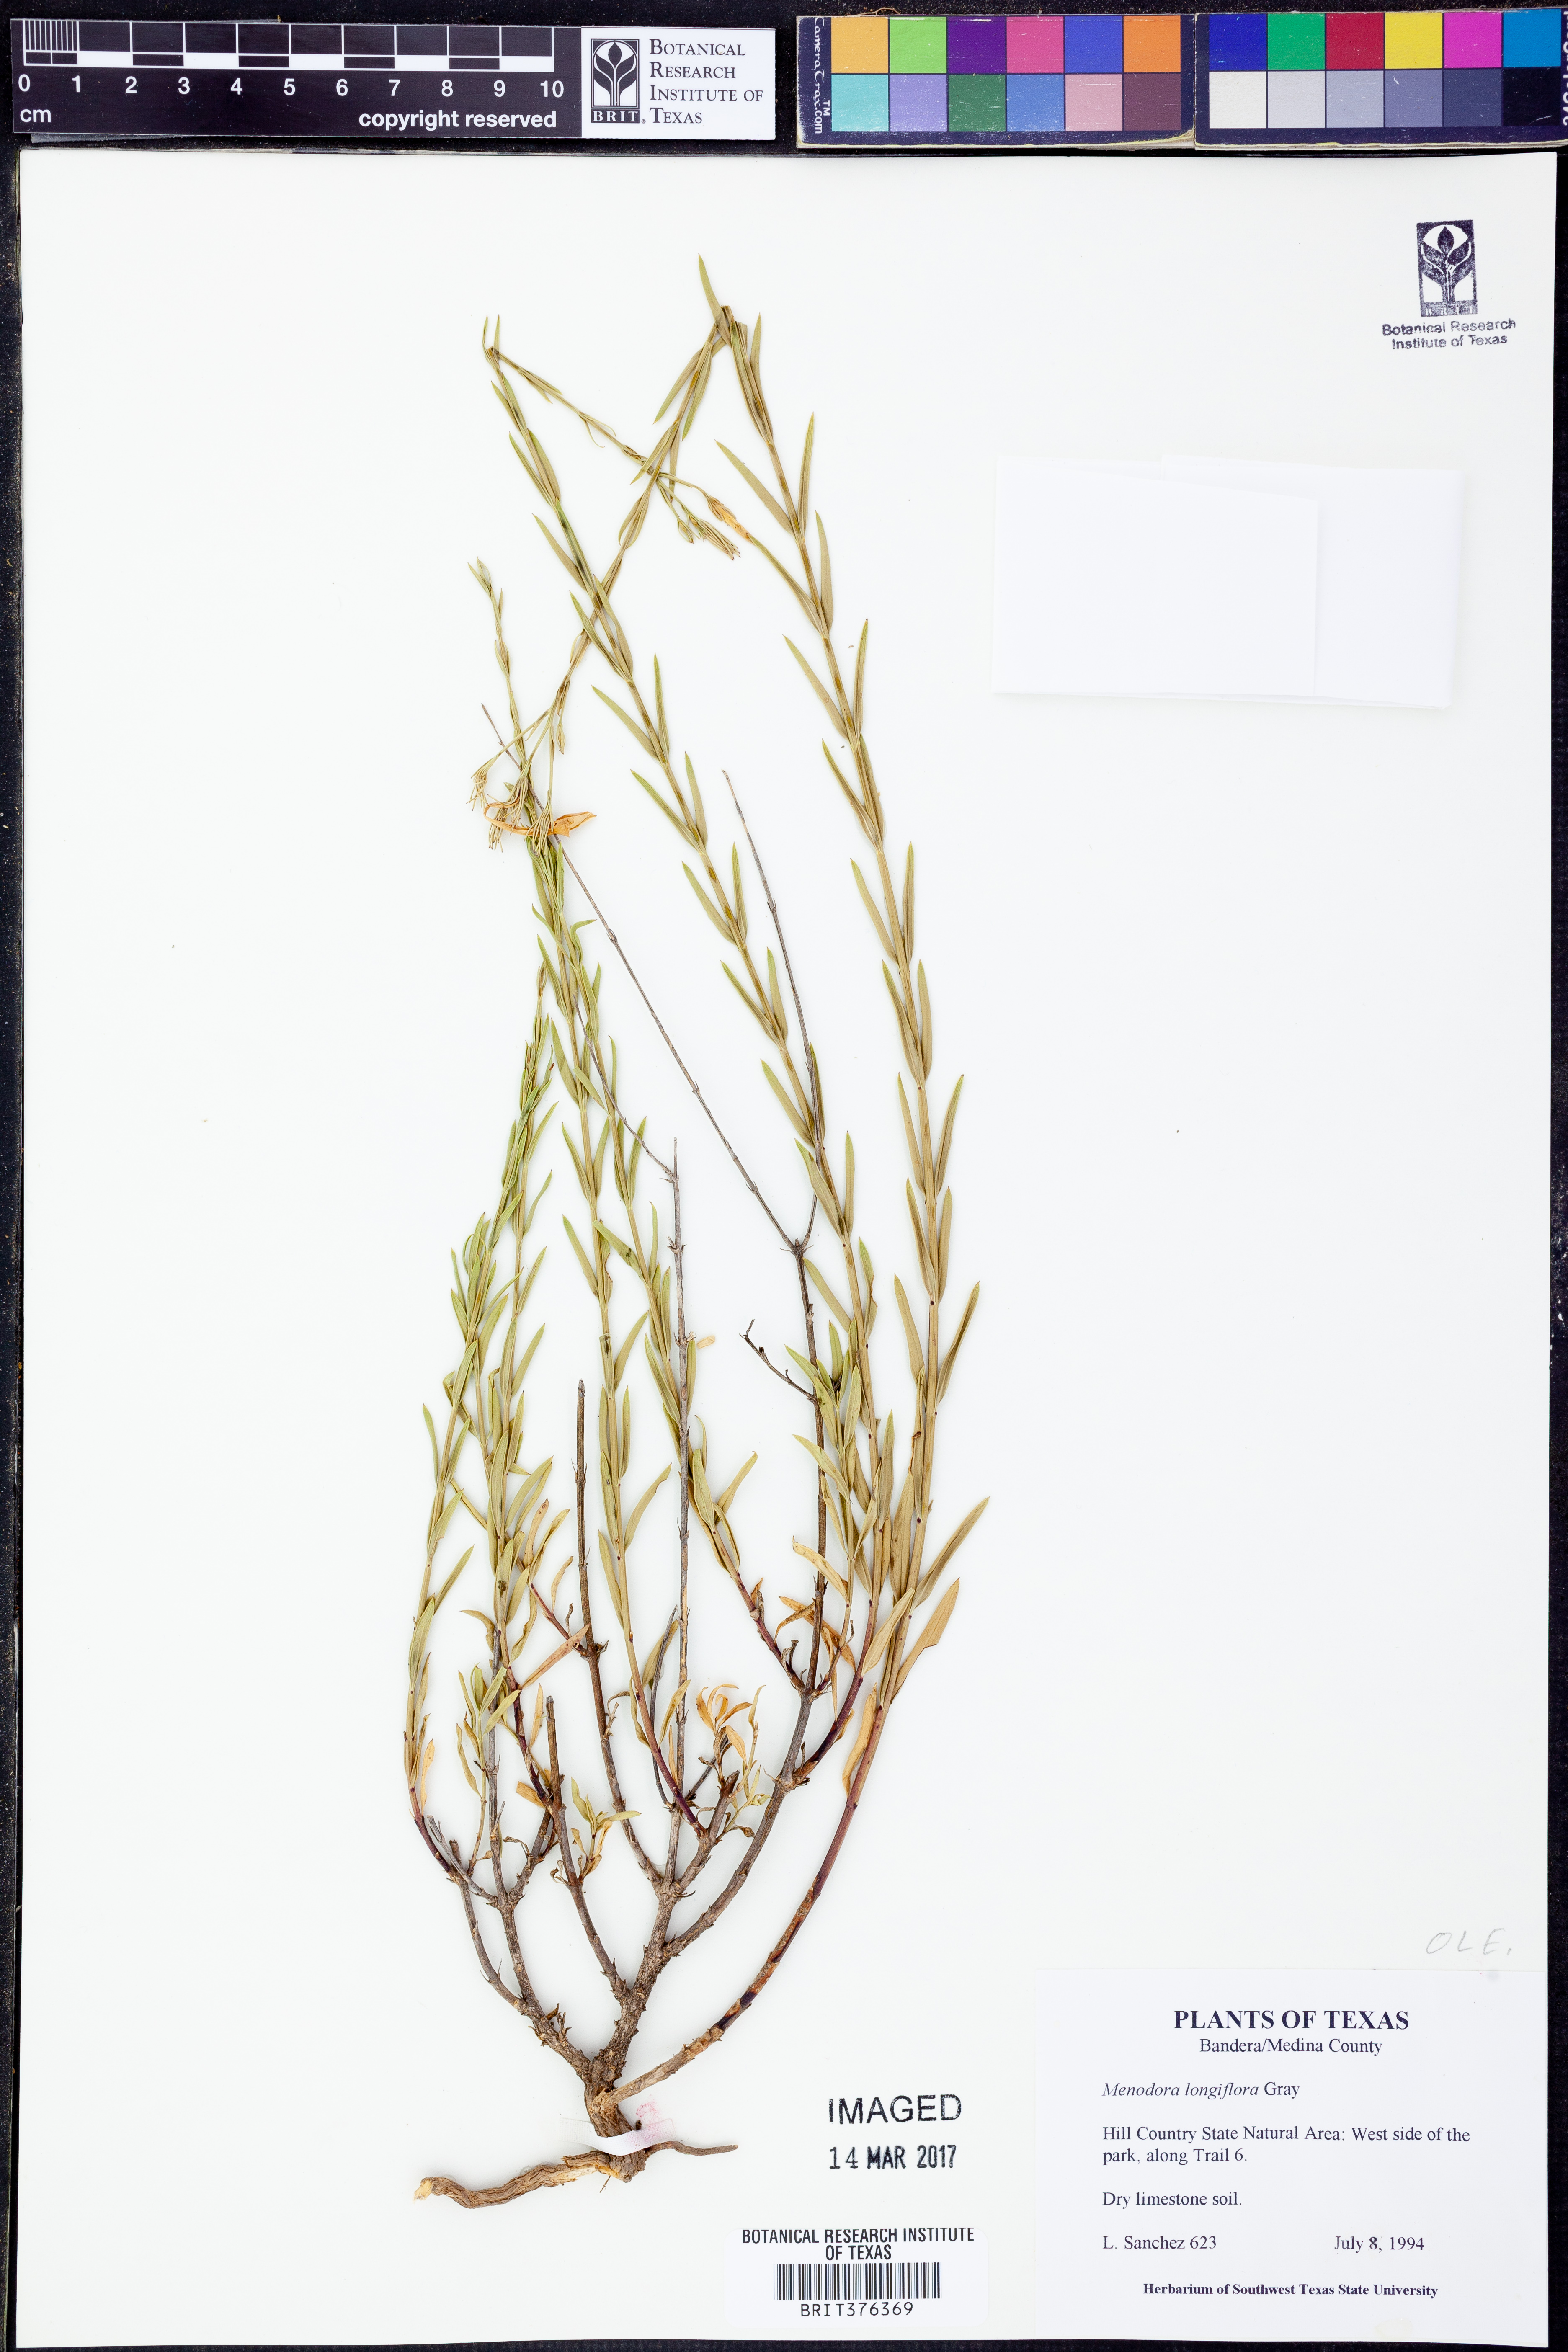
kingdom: Plantae
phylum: Tracheophyta
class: Magnoliopsida
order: Lamiales
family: Oleaceae
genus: Menodora
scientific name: Menodora longiflora
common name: Showy menodora
